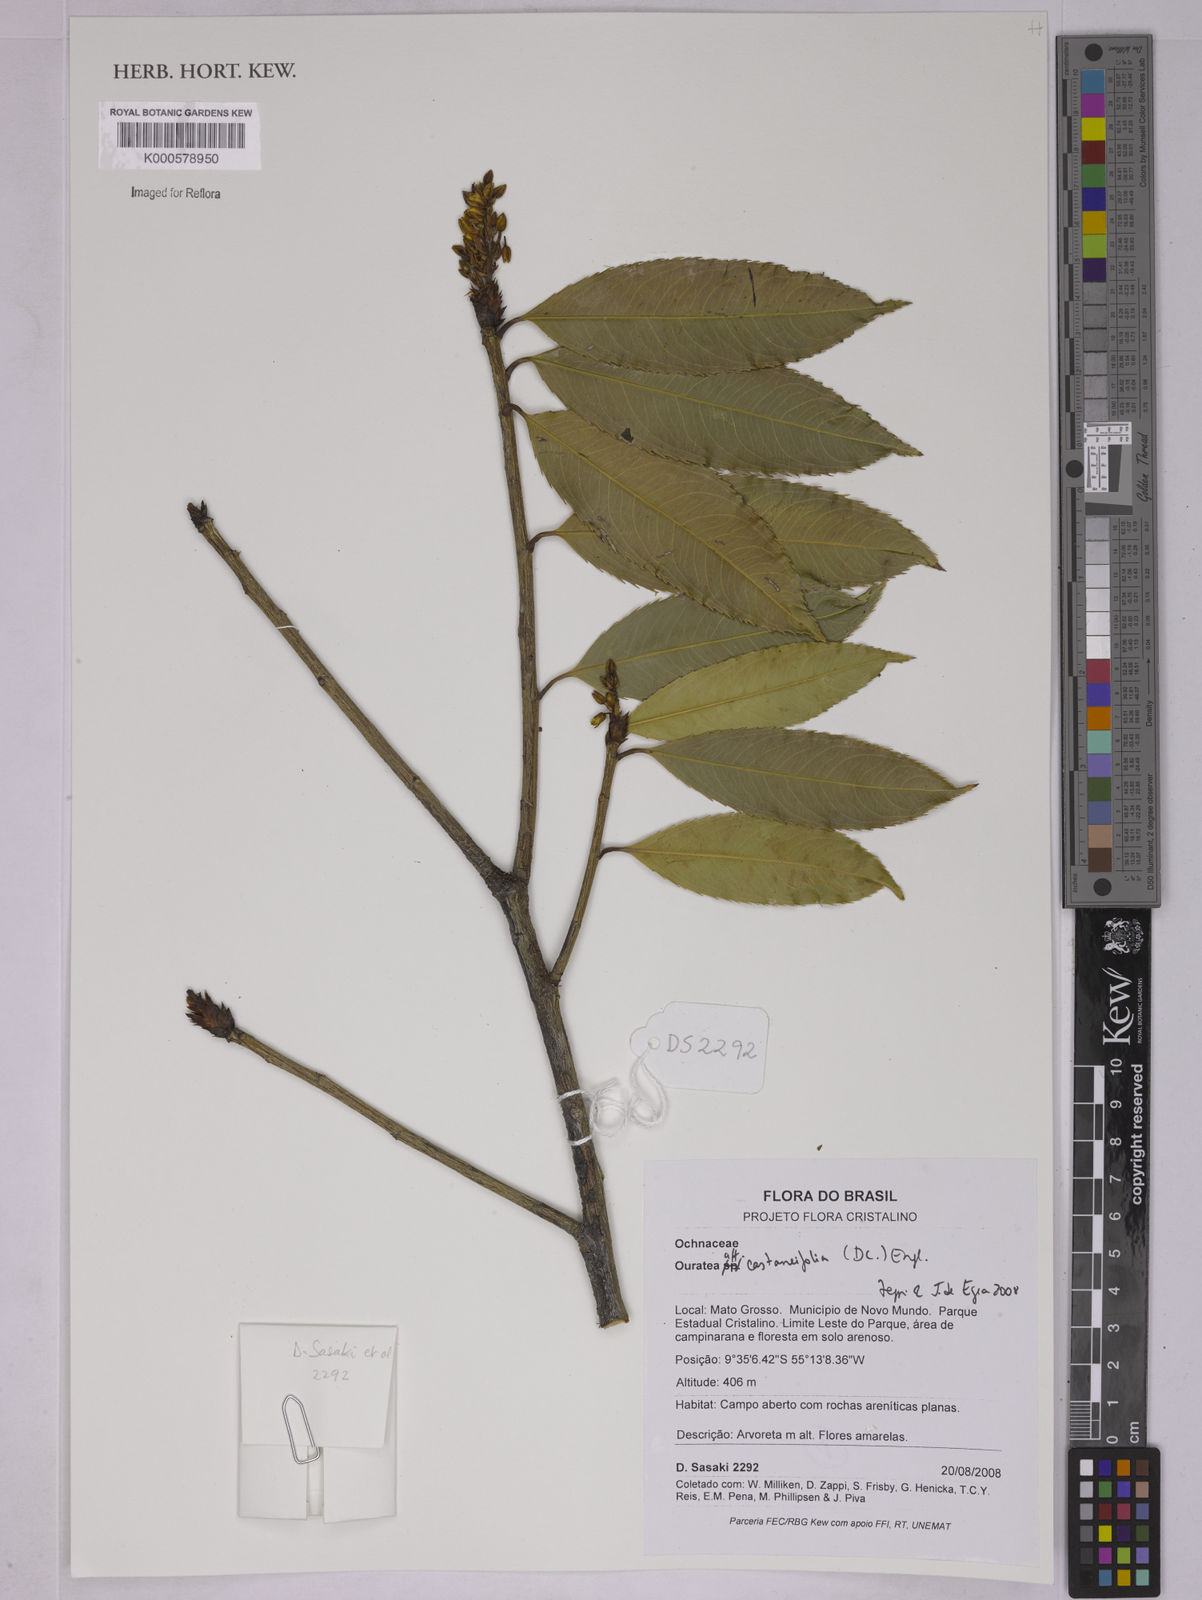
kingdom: Plantae
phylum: Tracheophyta
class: Magnoliopsida
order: Malpighiales
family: Ochnaceae
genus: Ouratea
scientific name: Ouratea castaneifolia
